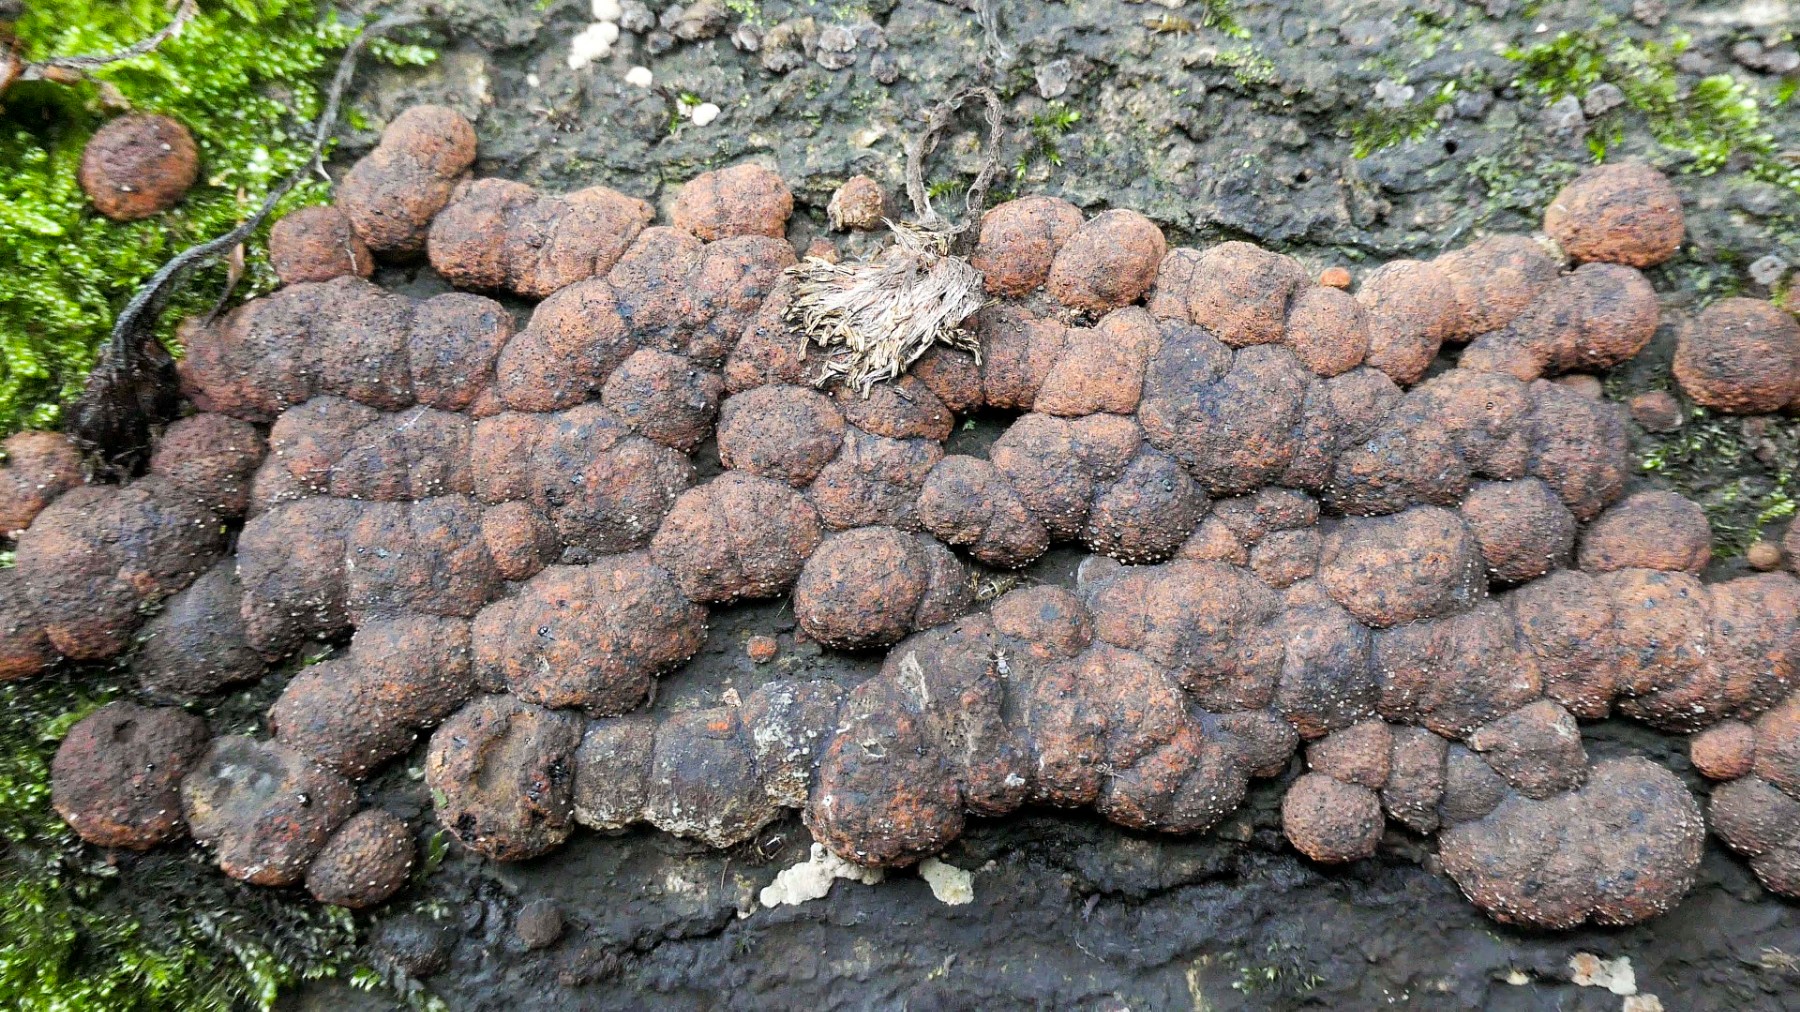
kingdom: Fungi
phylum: Ascomycota
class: Sordariomycetes
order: Xylariales
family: Hypoxylaceae
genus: Jackrogersella
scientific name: Jackrogersella cohaerens
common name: sammenflydende kulbær
